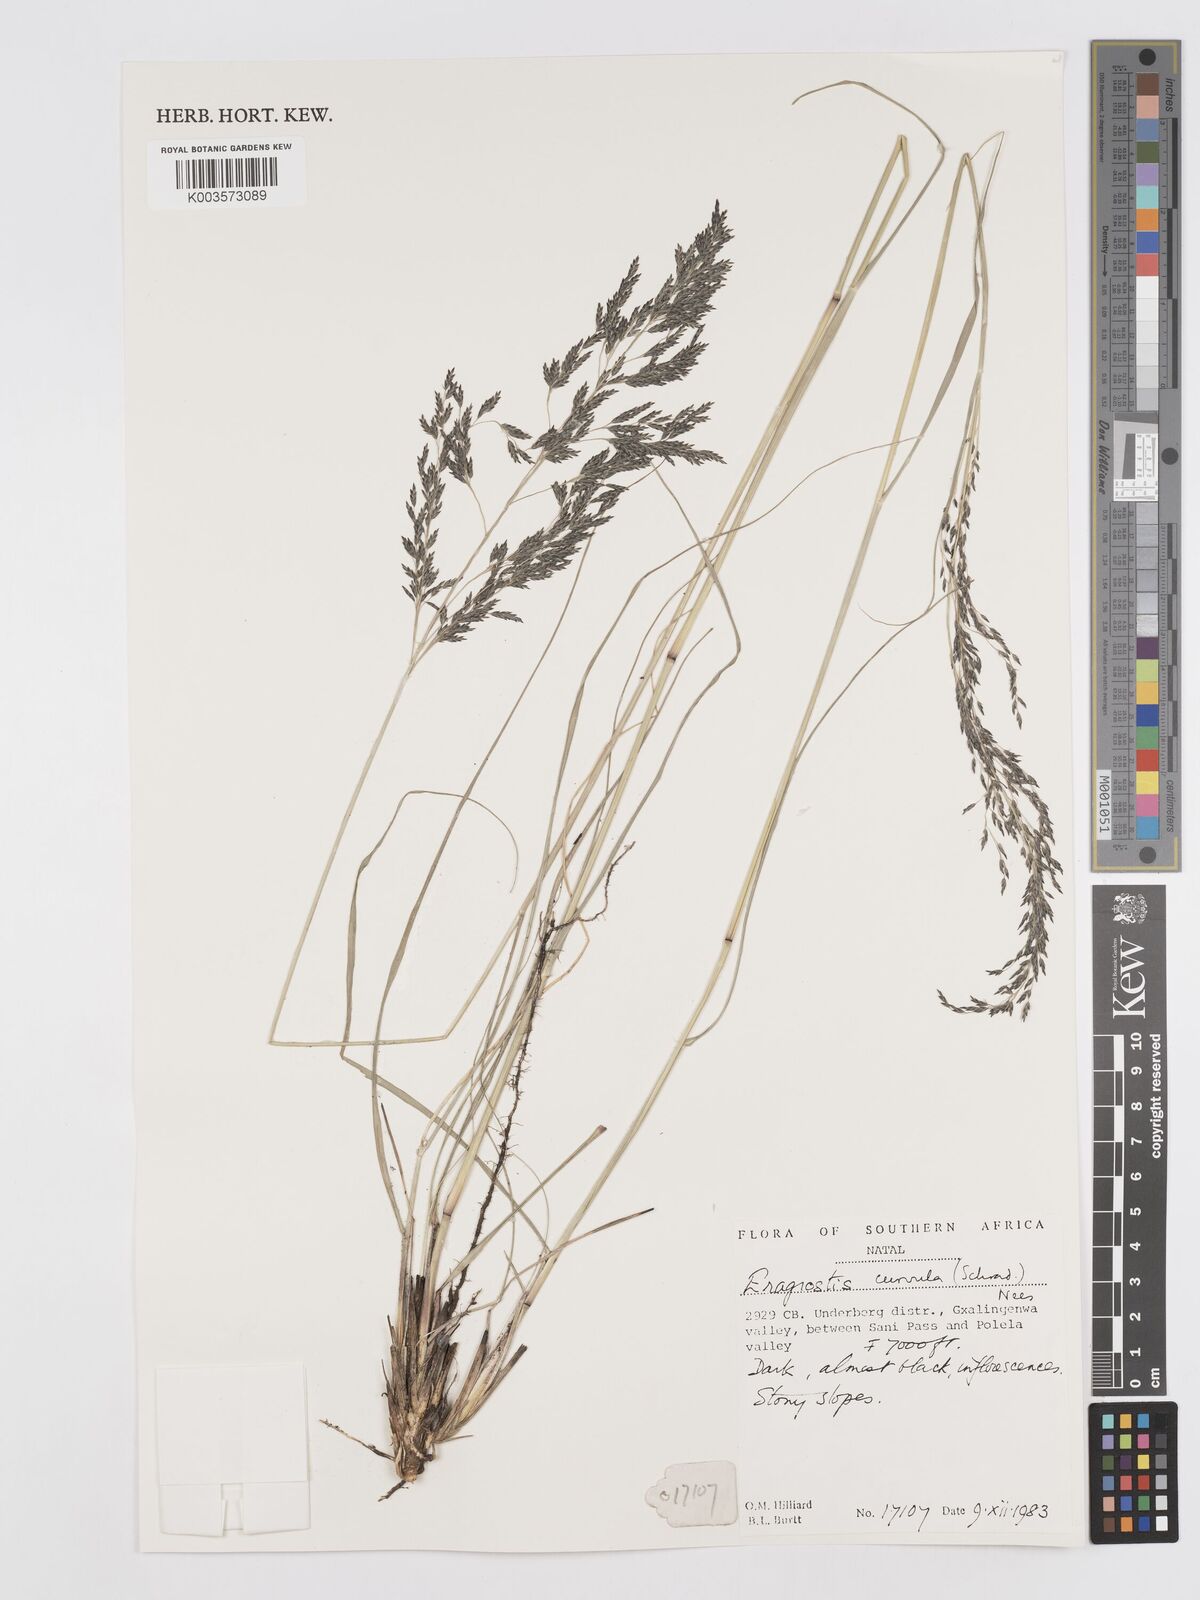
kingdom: Plantae
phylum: Tracheophyta
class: Liliopsida
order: Poales
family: Poaceae
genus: Eragrostis
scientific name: Eragrostis curvula
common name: African love-grass
